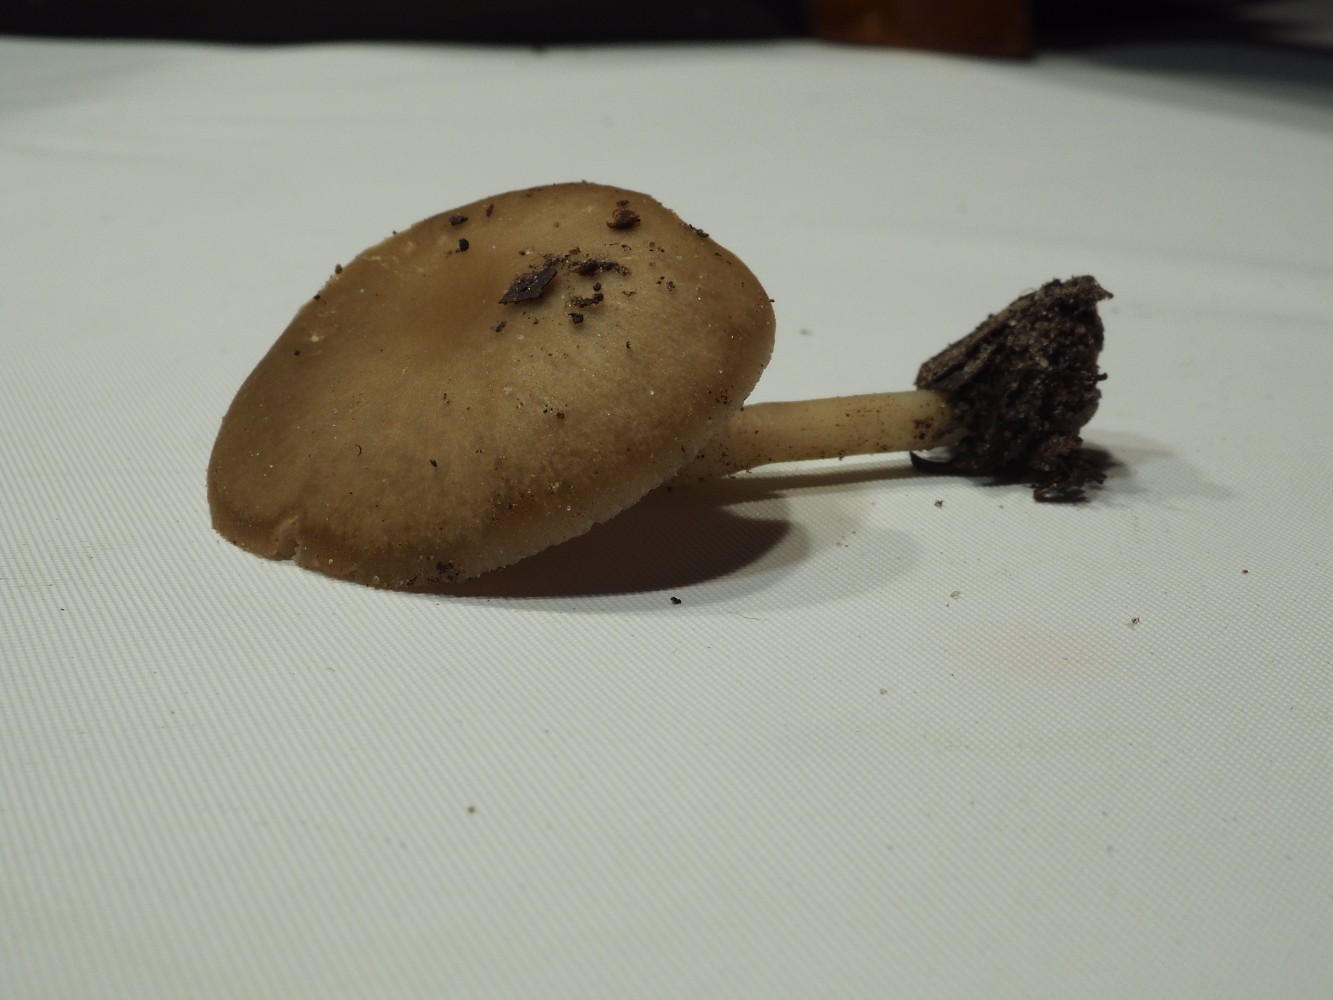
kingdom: Fungi
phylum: Basidiomycota
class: Agaricomycetes
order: Agaricales
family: Entolomataceae
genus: Entoloma
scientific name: Entoloma rhodopolium
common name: skov-rødblad
